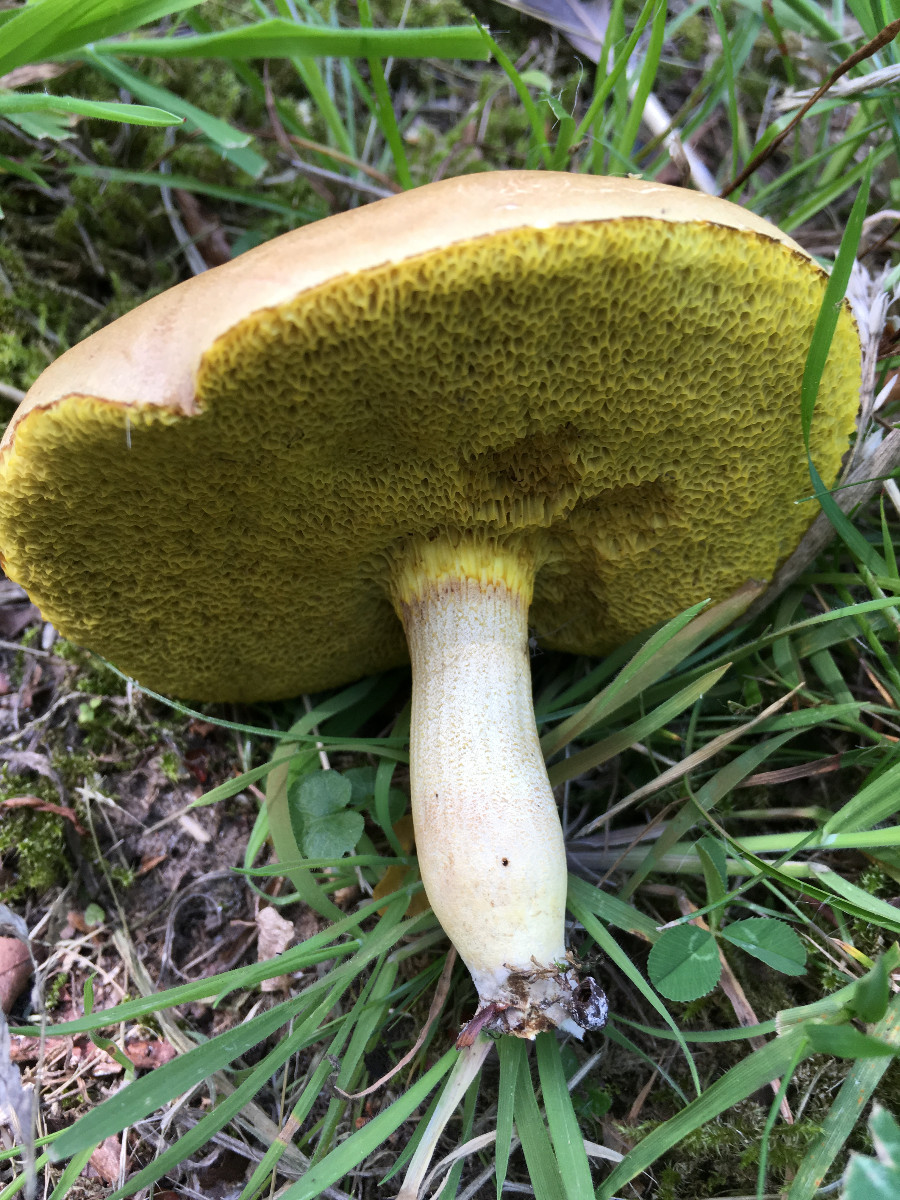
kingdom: Fungi
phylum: Basidiomycota
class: Agaricomycetes
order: Boletales
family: Boletaceae
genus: Xerocomus
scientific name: Xerocomus subtomentosus
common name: filtet rørhat
